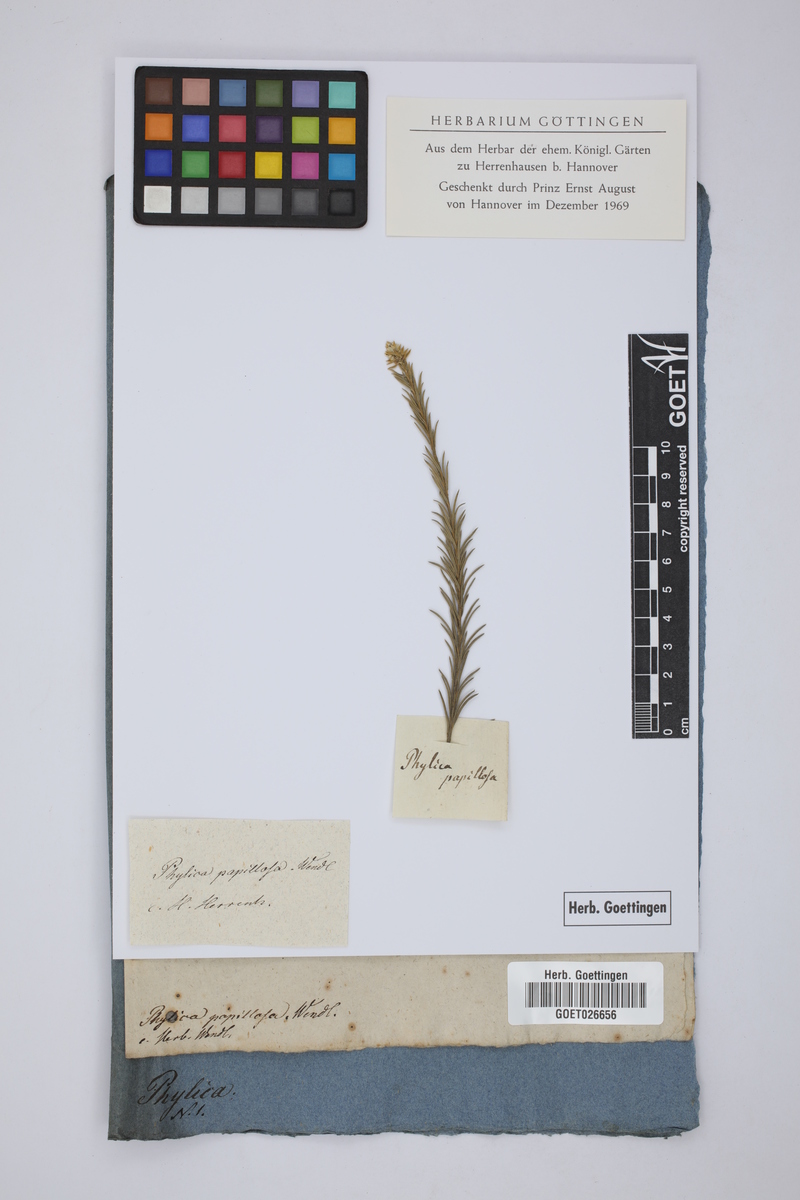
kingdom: Plantae
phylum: Tracheophyta
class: Magnoliopsida
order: Rosales
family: Rhamnaceae
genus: Phylica
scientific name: Phylica excelsa
